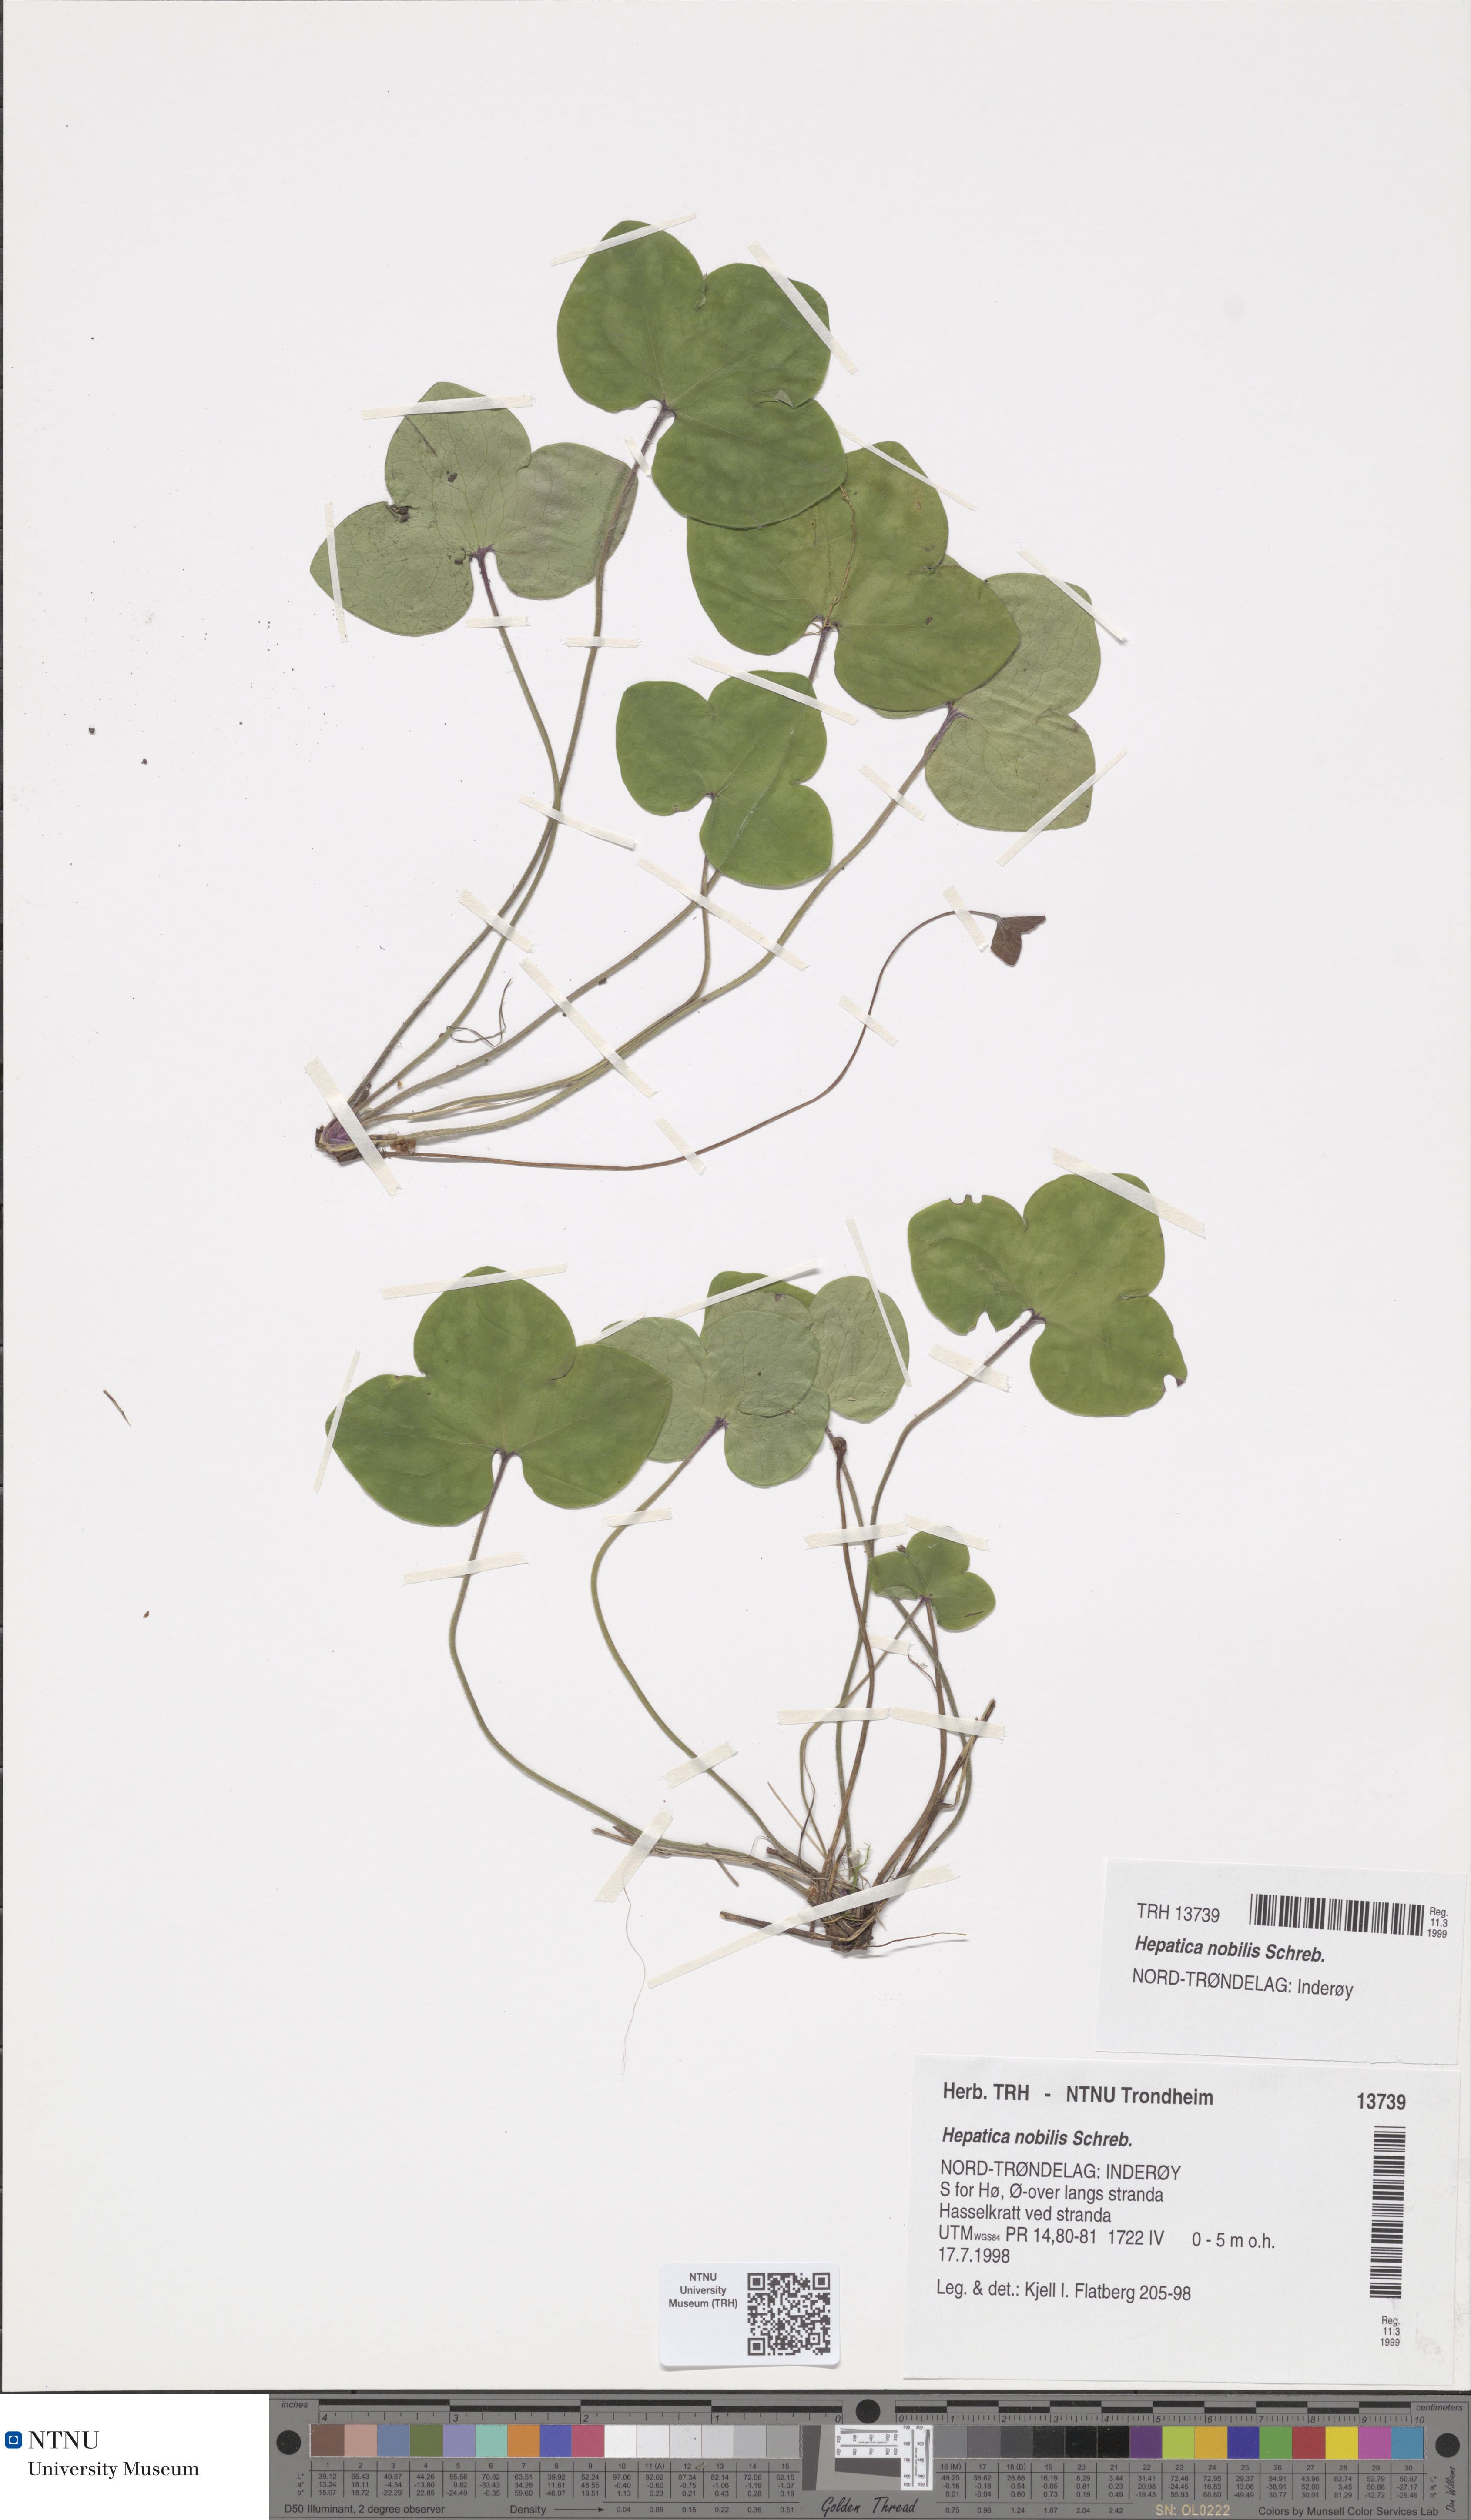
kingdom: Plantae
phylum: Tracheophyta
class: Magnoliopsida
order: Ranunculales
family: Ranunculaceae
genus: Hepatica
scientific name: Hepatica nobilis
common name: Liverleaf
